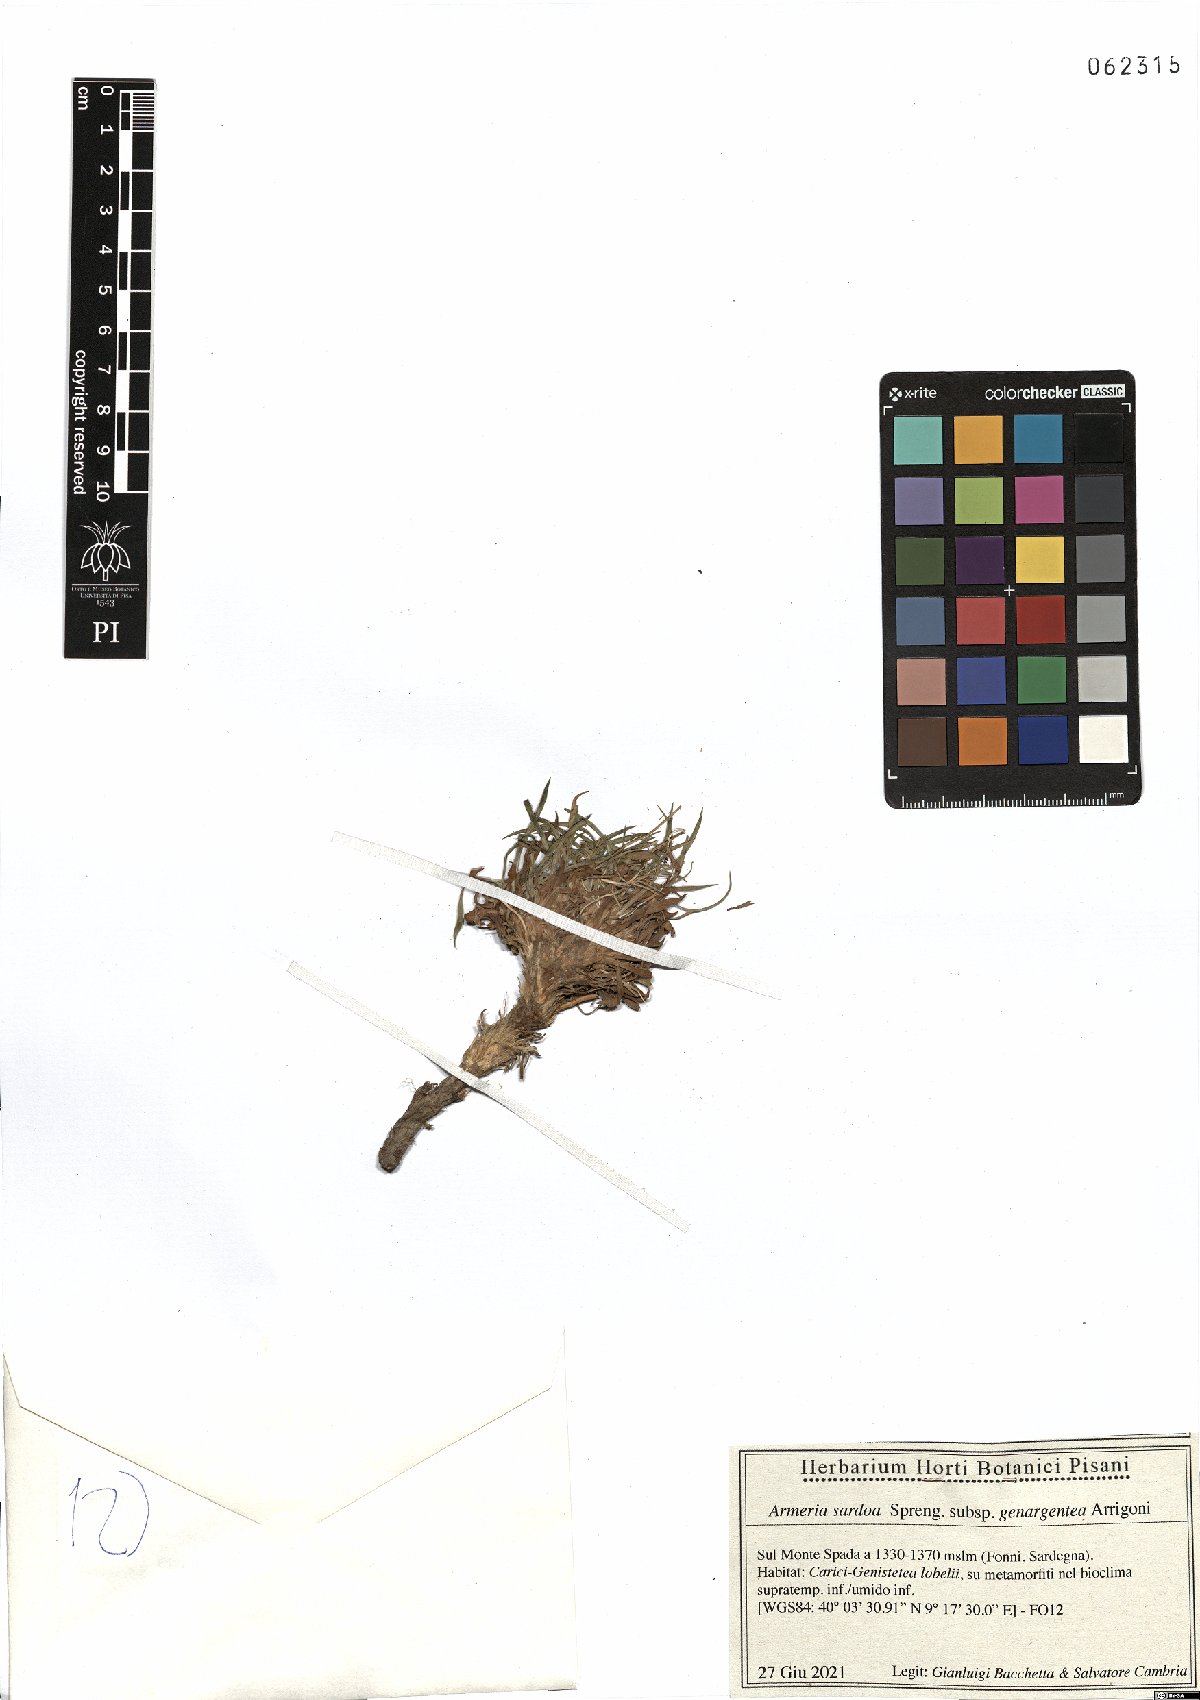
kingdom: Plantae
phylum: Tracheophyta
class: Magnoliopsida
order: Caryophyllales
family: Plumbaginaceae
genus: Armeria
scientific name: Armeria sardoa
